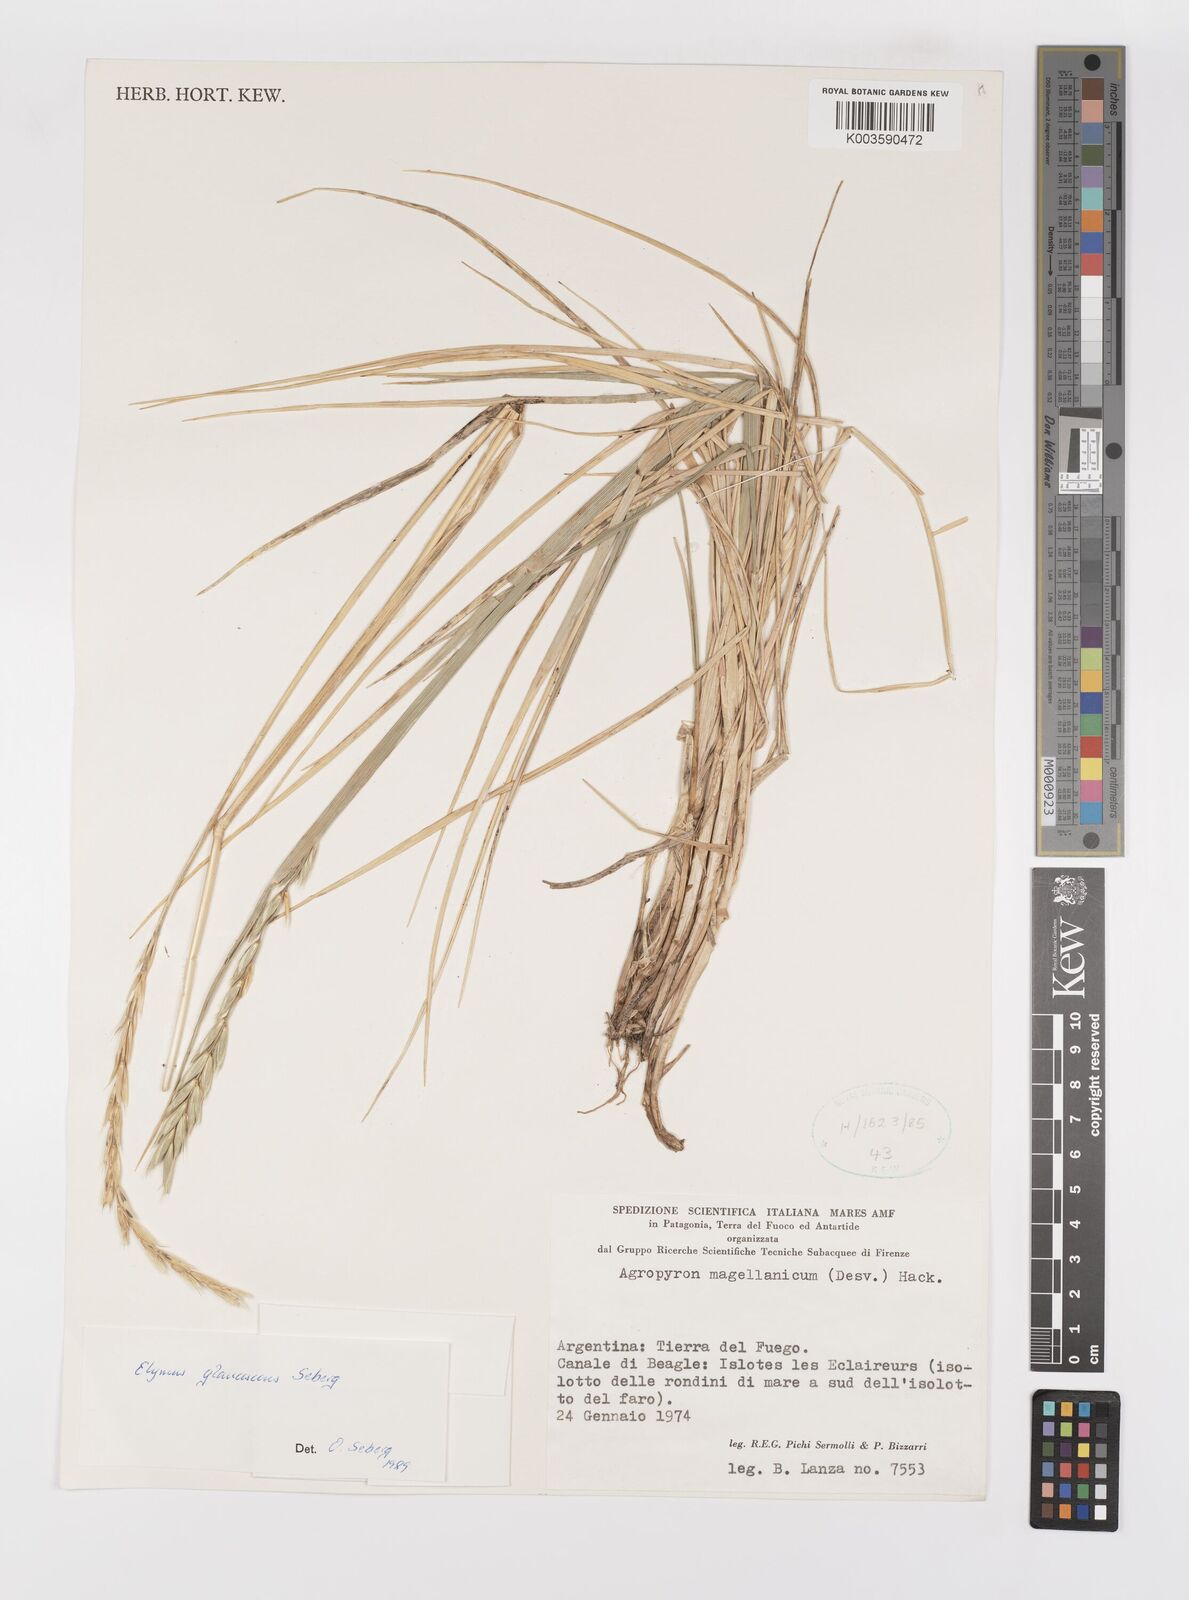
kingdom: Plantae
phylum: Tracheophyta
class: Liliopsida
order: Poales
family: Poaceae
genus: Elymus
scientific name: Elymus magellanicus
